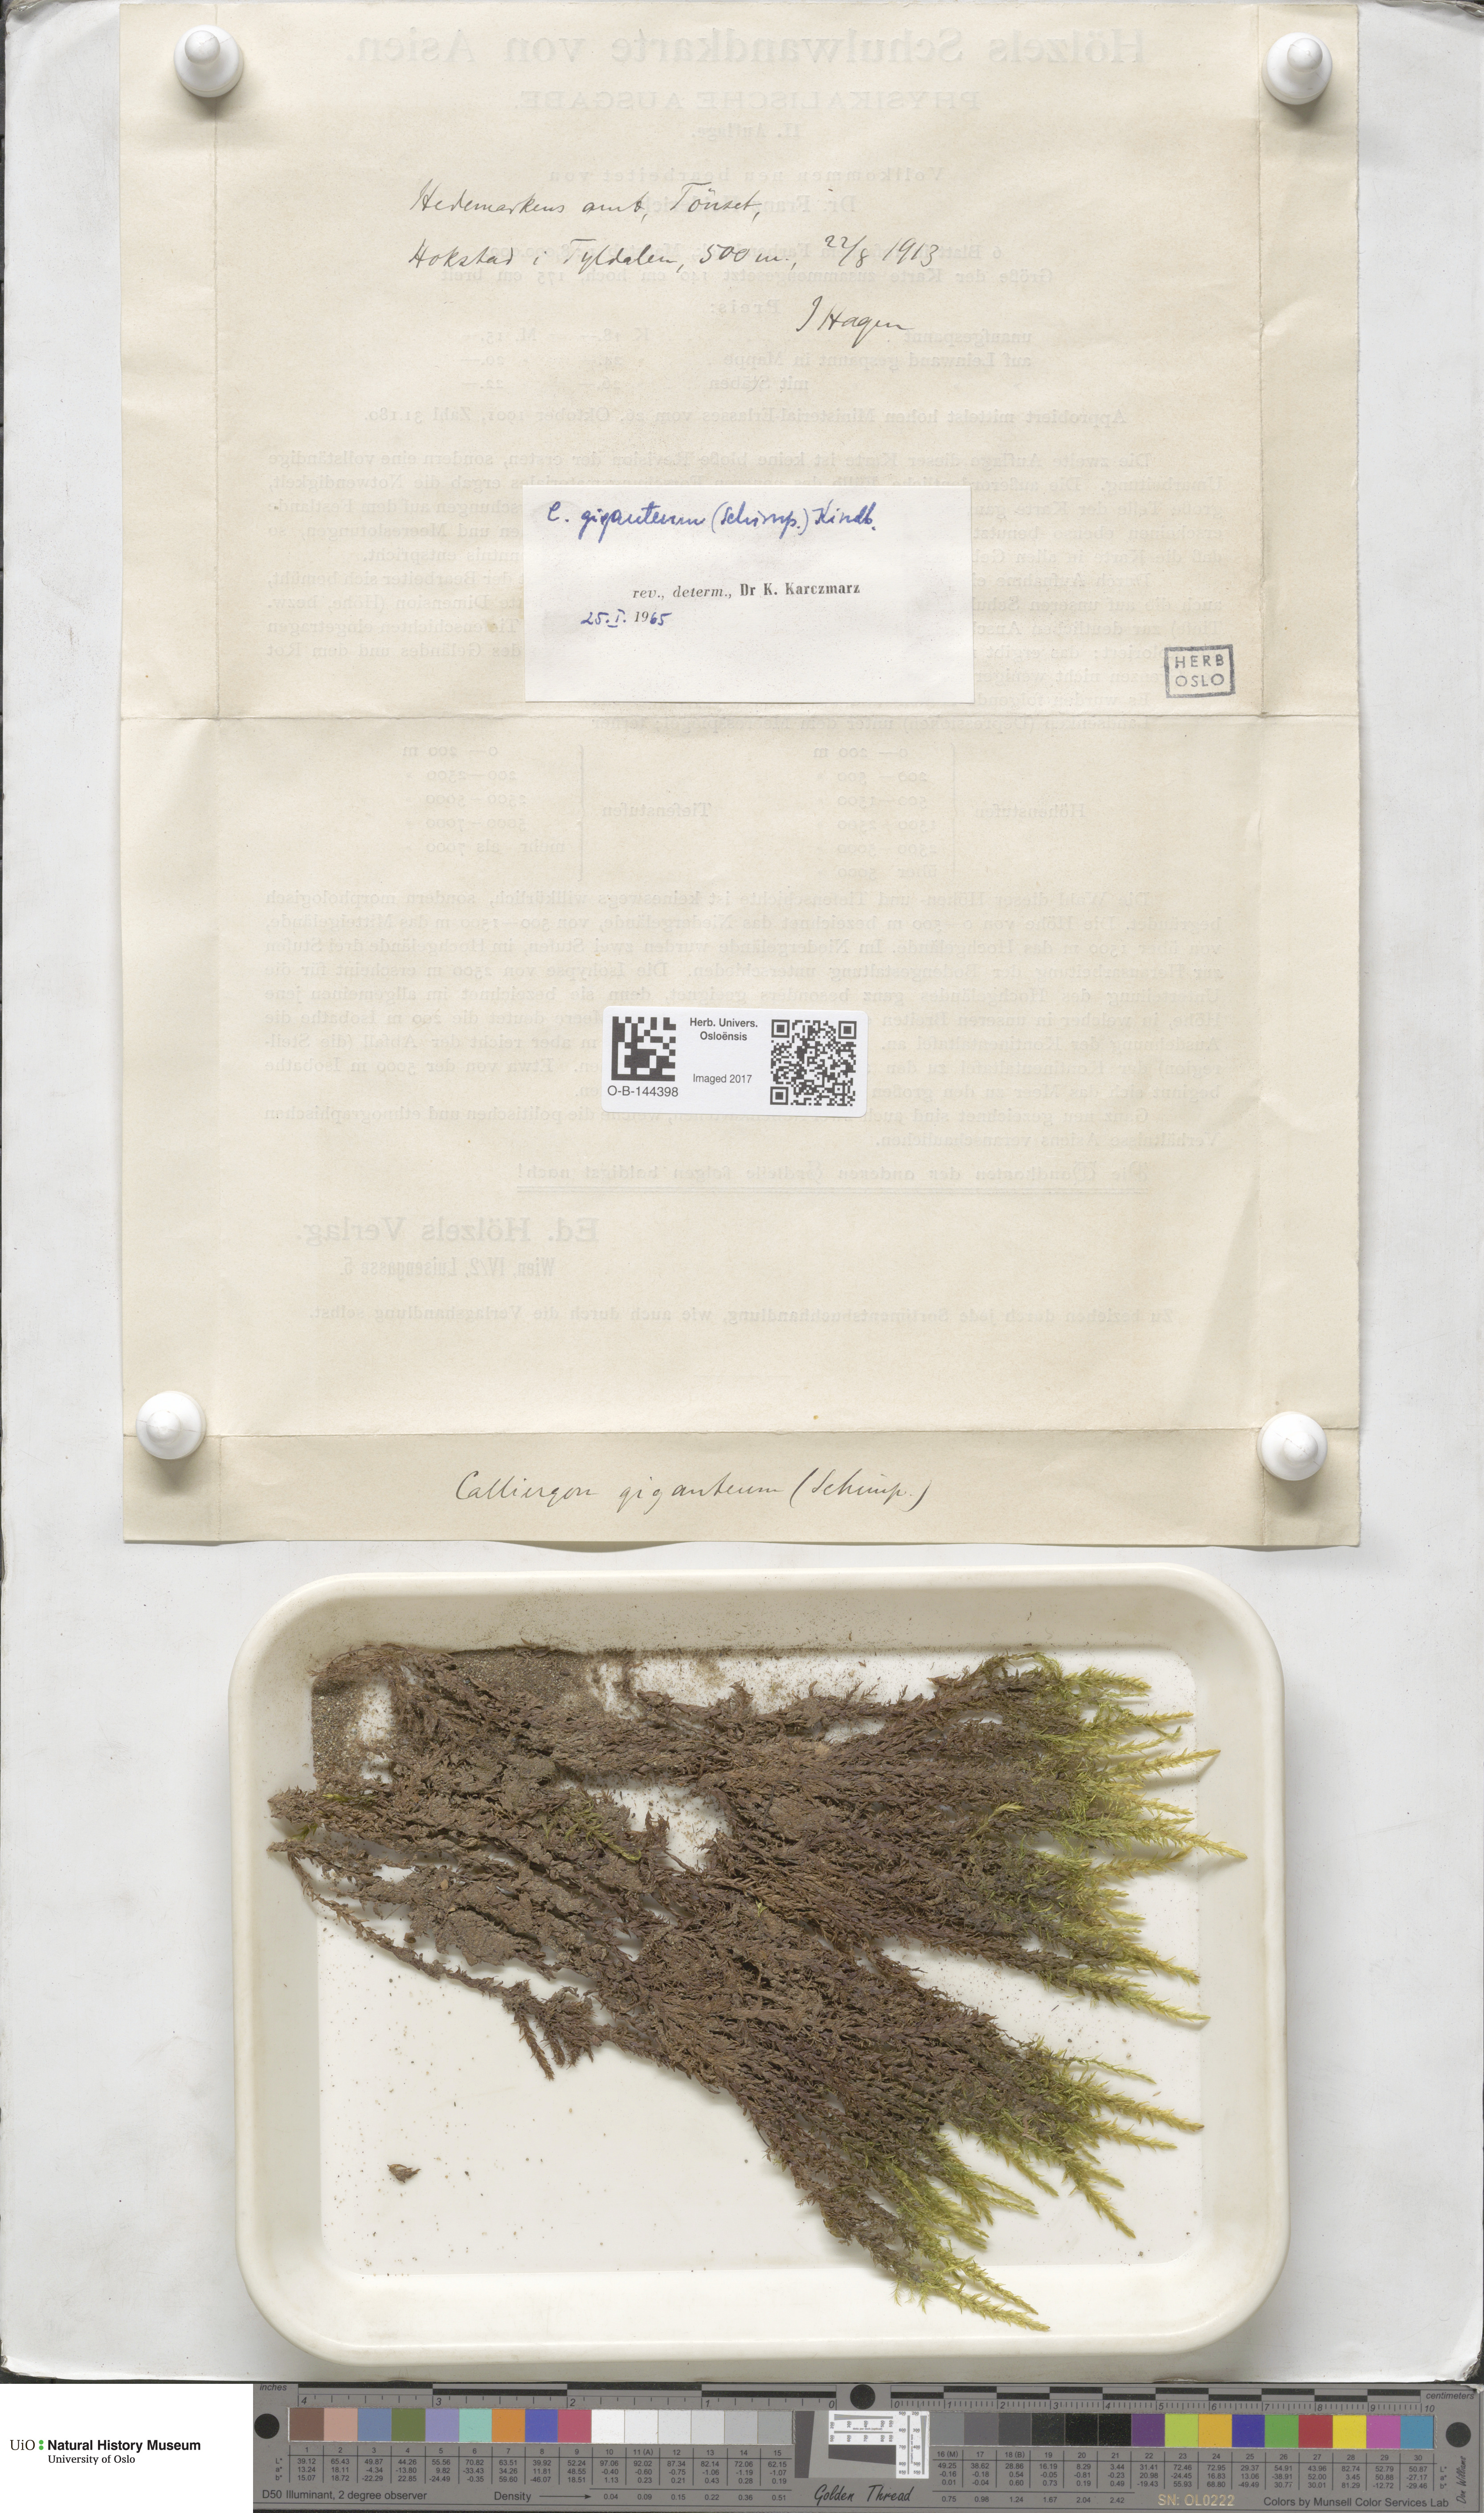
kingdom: Plantae
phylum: Bryophyta
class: Bryopsida
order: Hypnales
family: Calliergonaceae
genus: Calliergon
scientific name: Calliergon giganteum
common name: Giant spear moss
